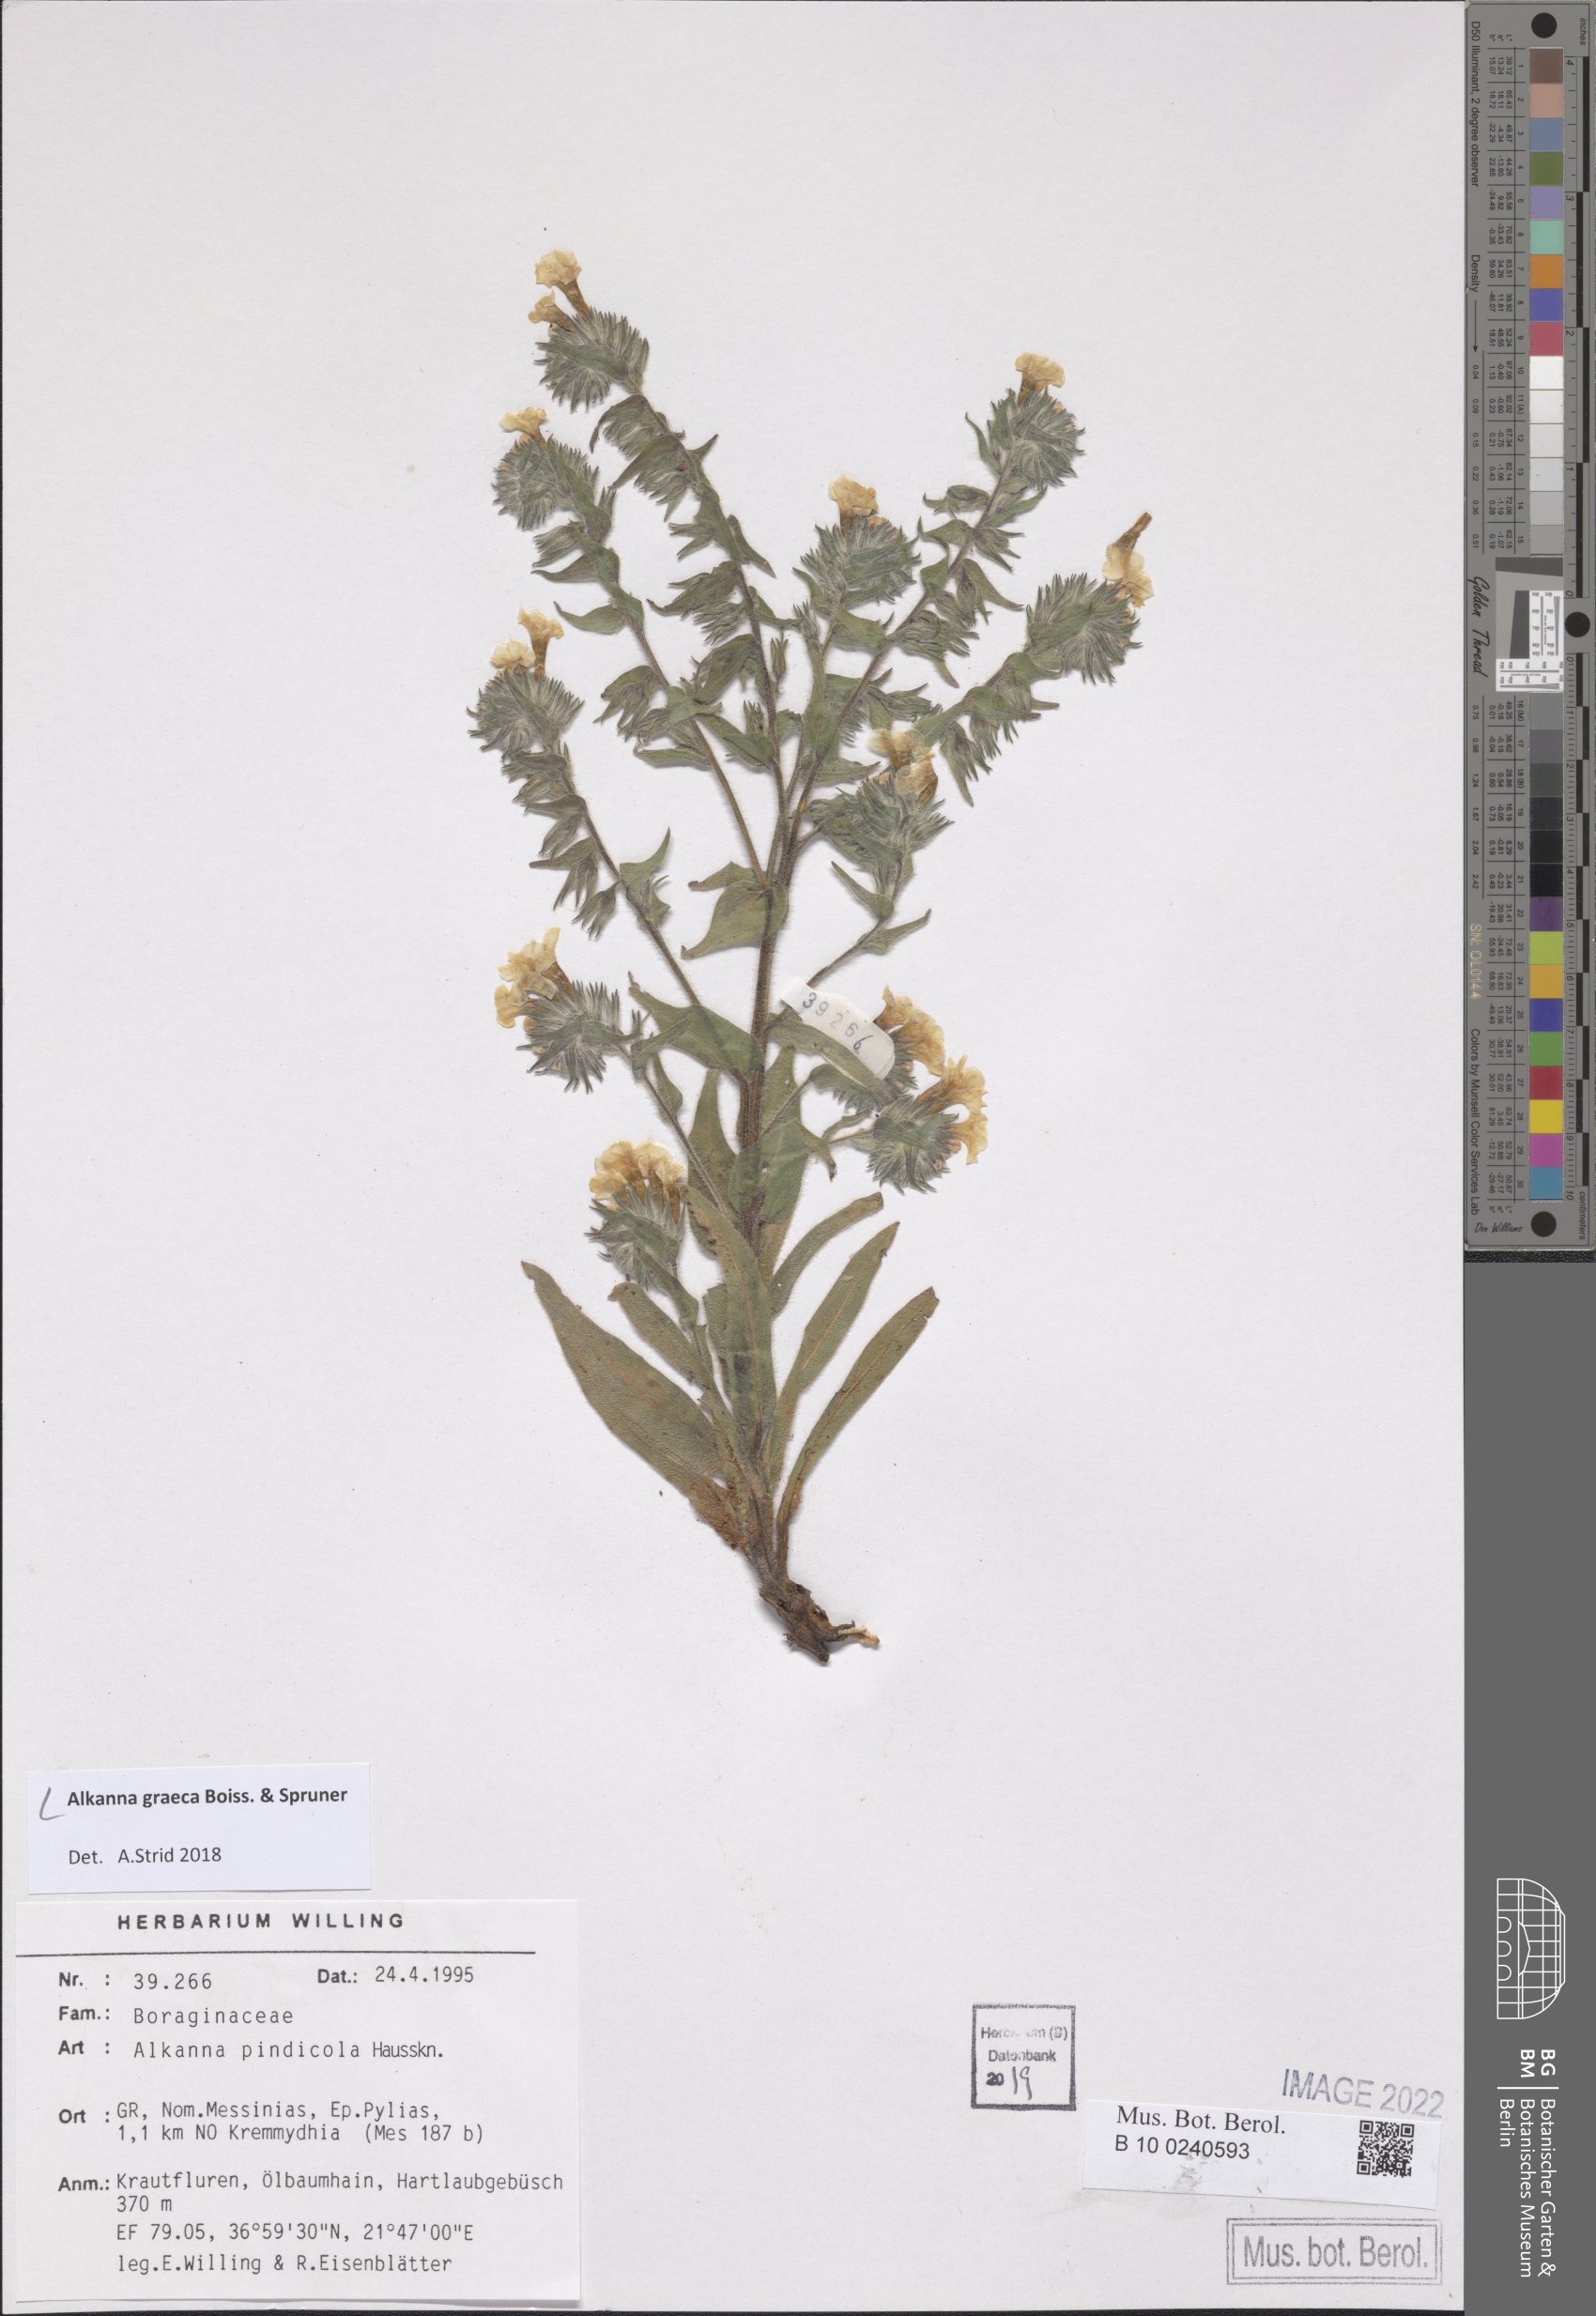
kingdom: Plantae
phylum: Tracheophyta
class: Magnoliopsida
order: Boraginales
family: Boraginaceae
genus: Alkanna
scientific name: Alkanna graeca
